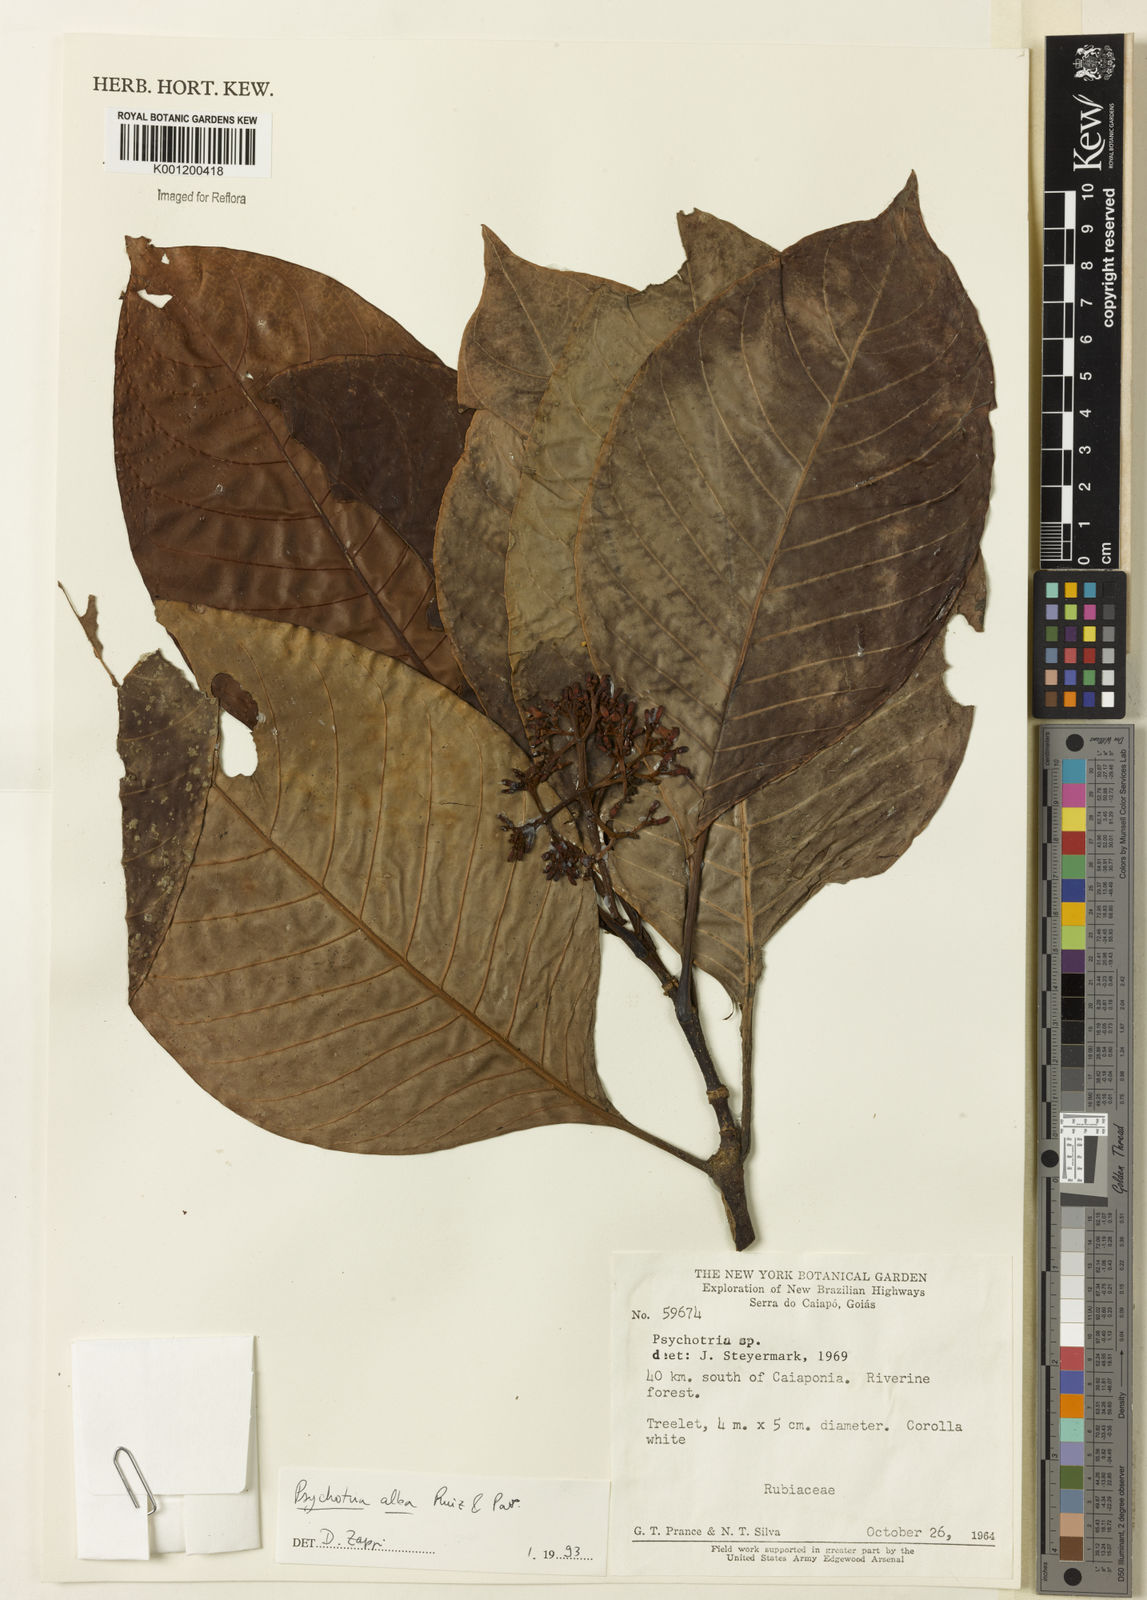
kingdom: Plantae
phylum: Tracheophyta
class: Magnoliopsida
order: Gentianales
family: Rubiaceae
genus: Psychotria
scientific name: Psychotria carthagenensis
